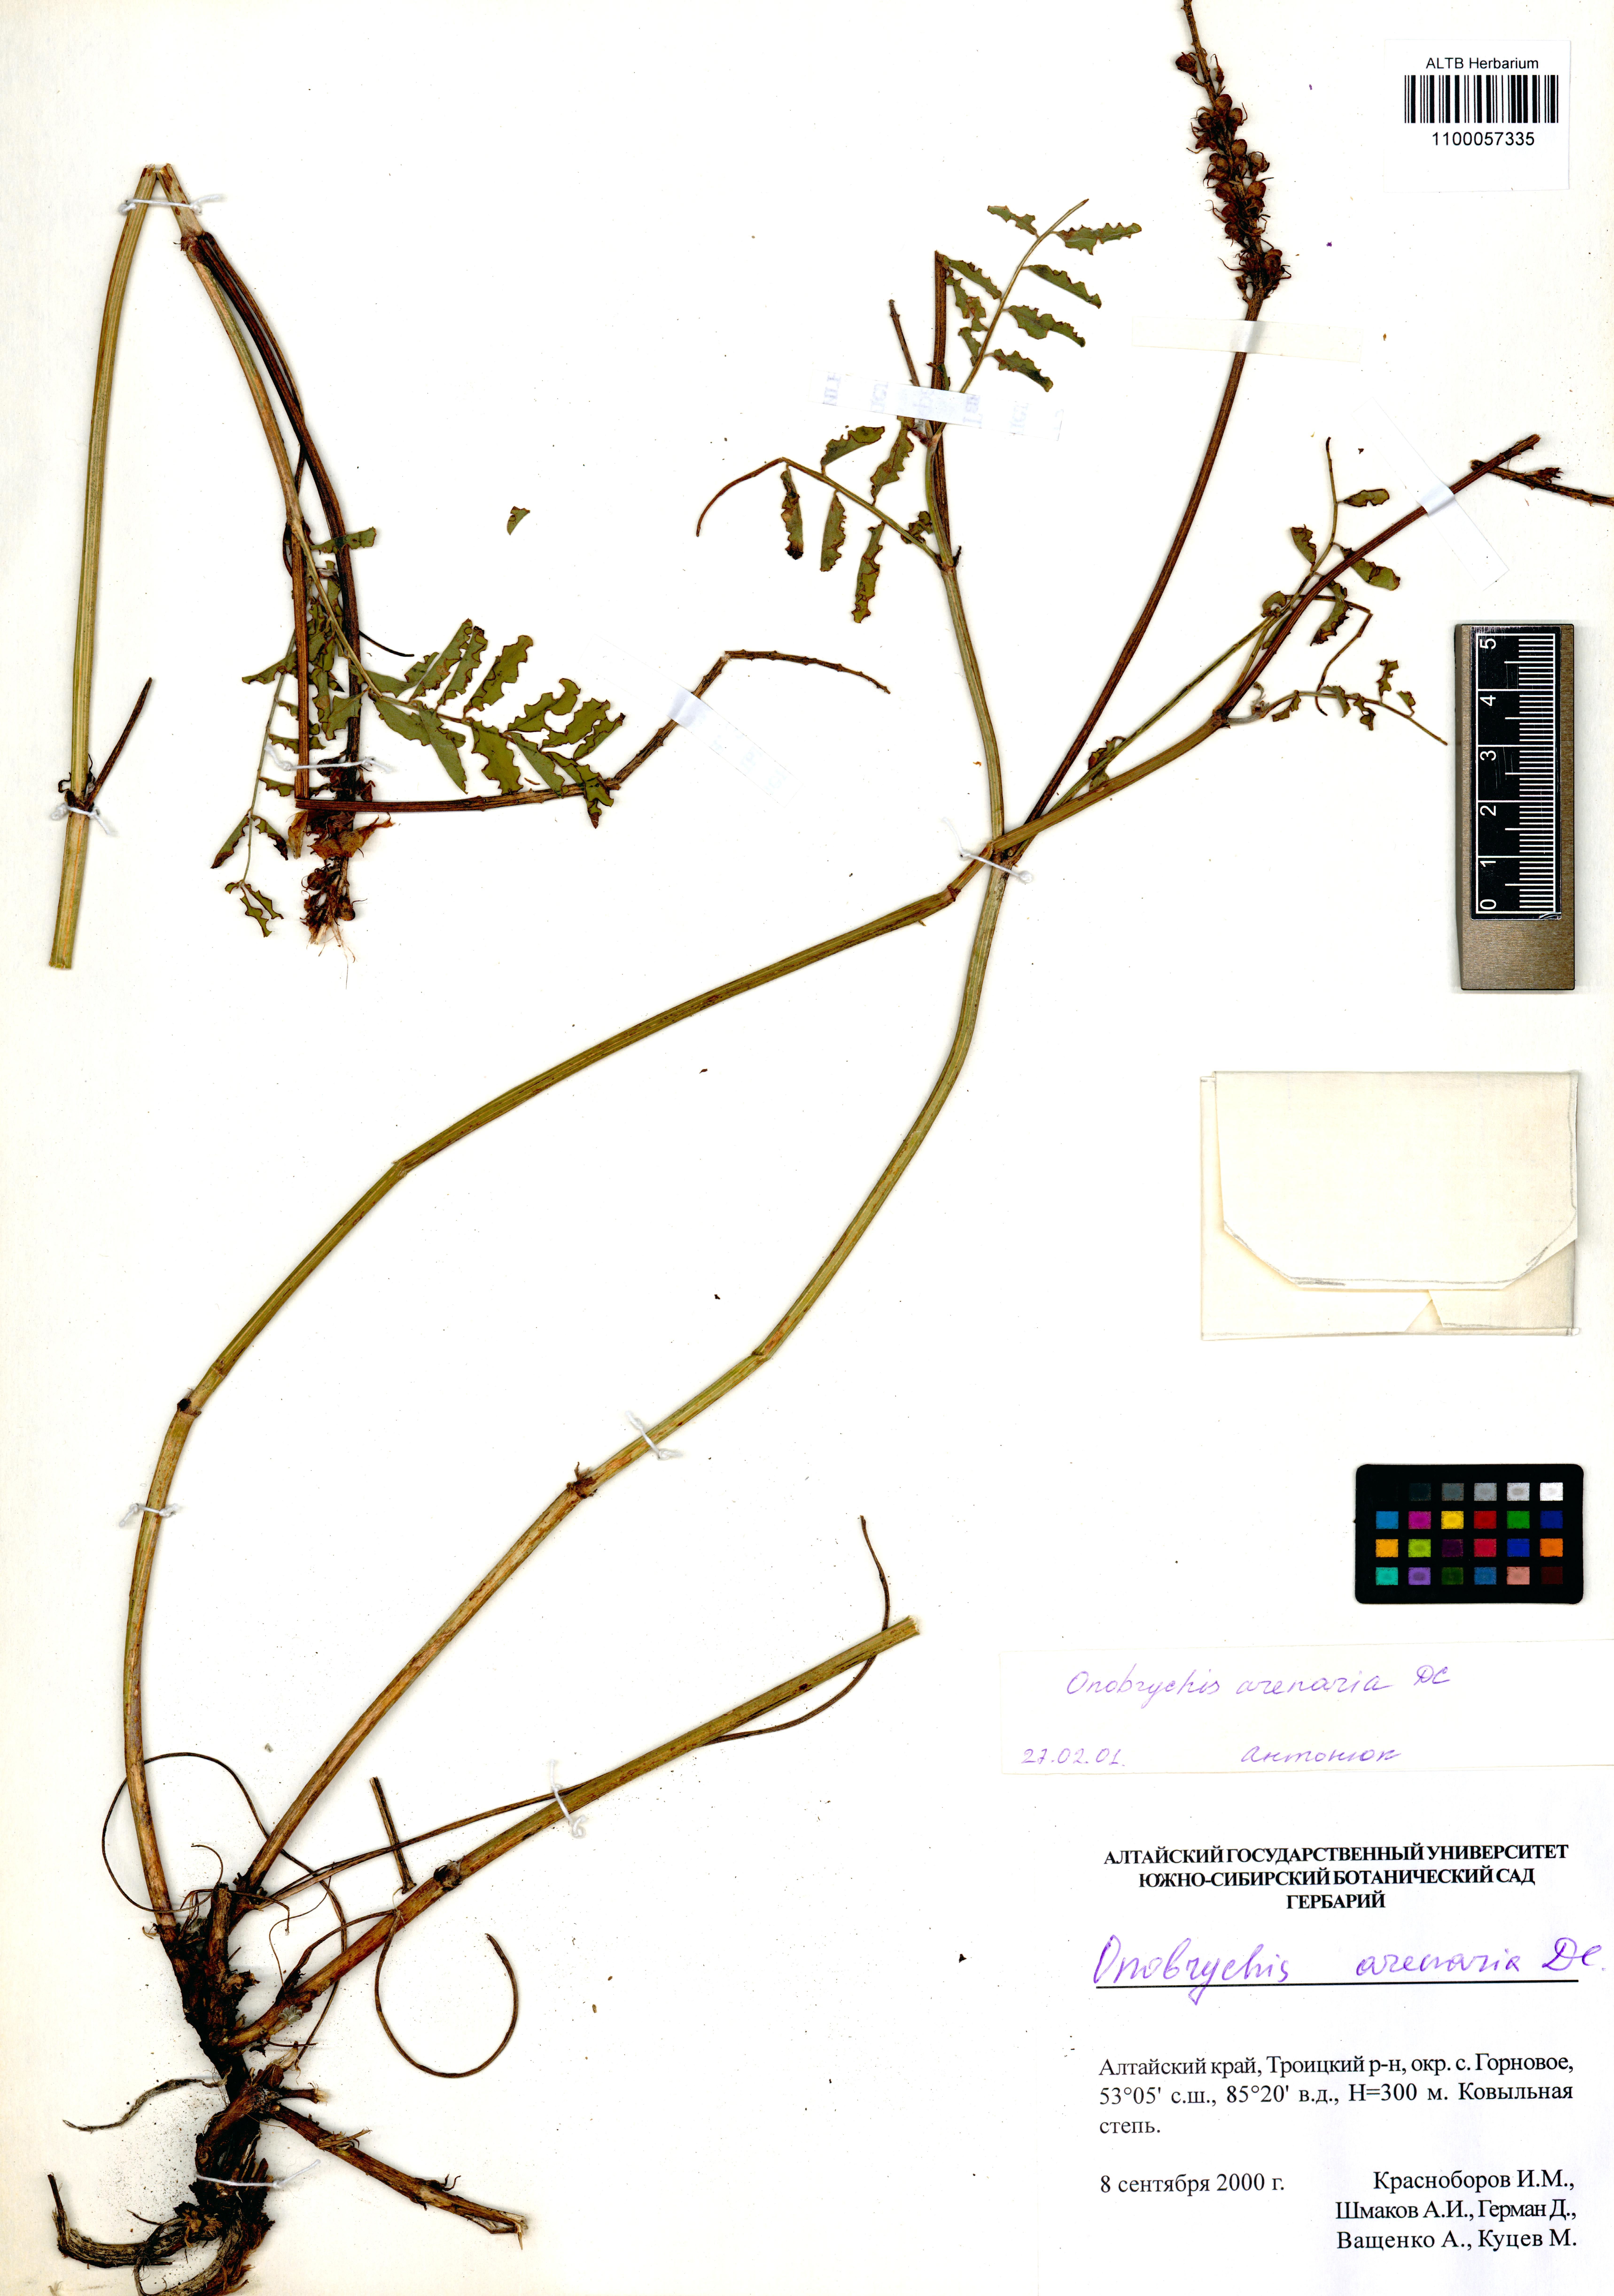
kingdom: Plantae
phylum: Tracheophyta
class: Magnoliopsida
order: Fabales
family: Fabaceae
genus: Onobrychis
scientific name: Onobrychis arenaria
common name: Sand esparcet
